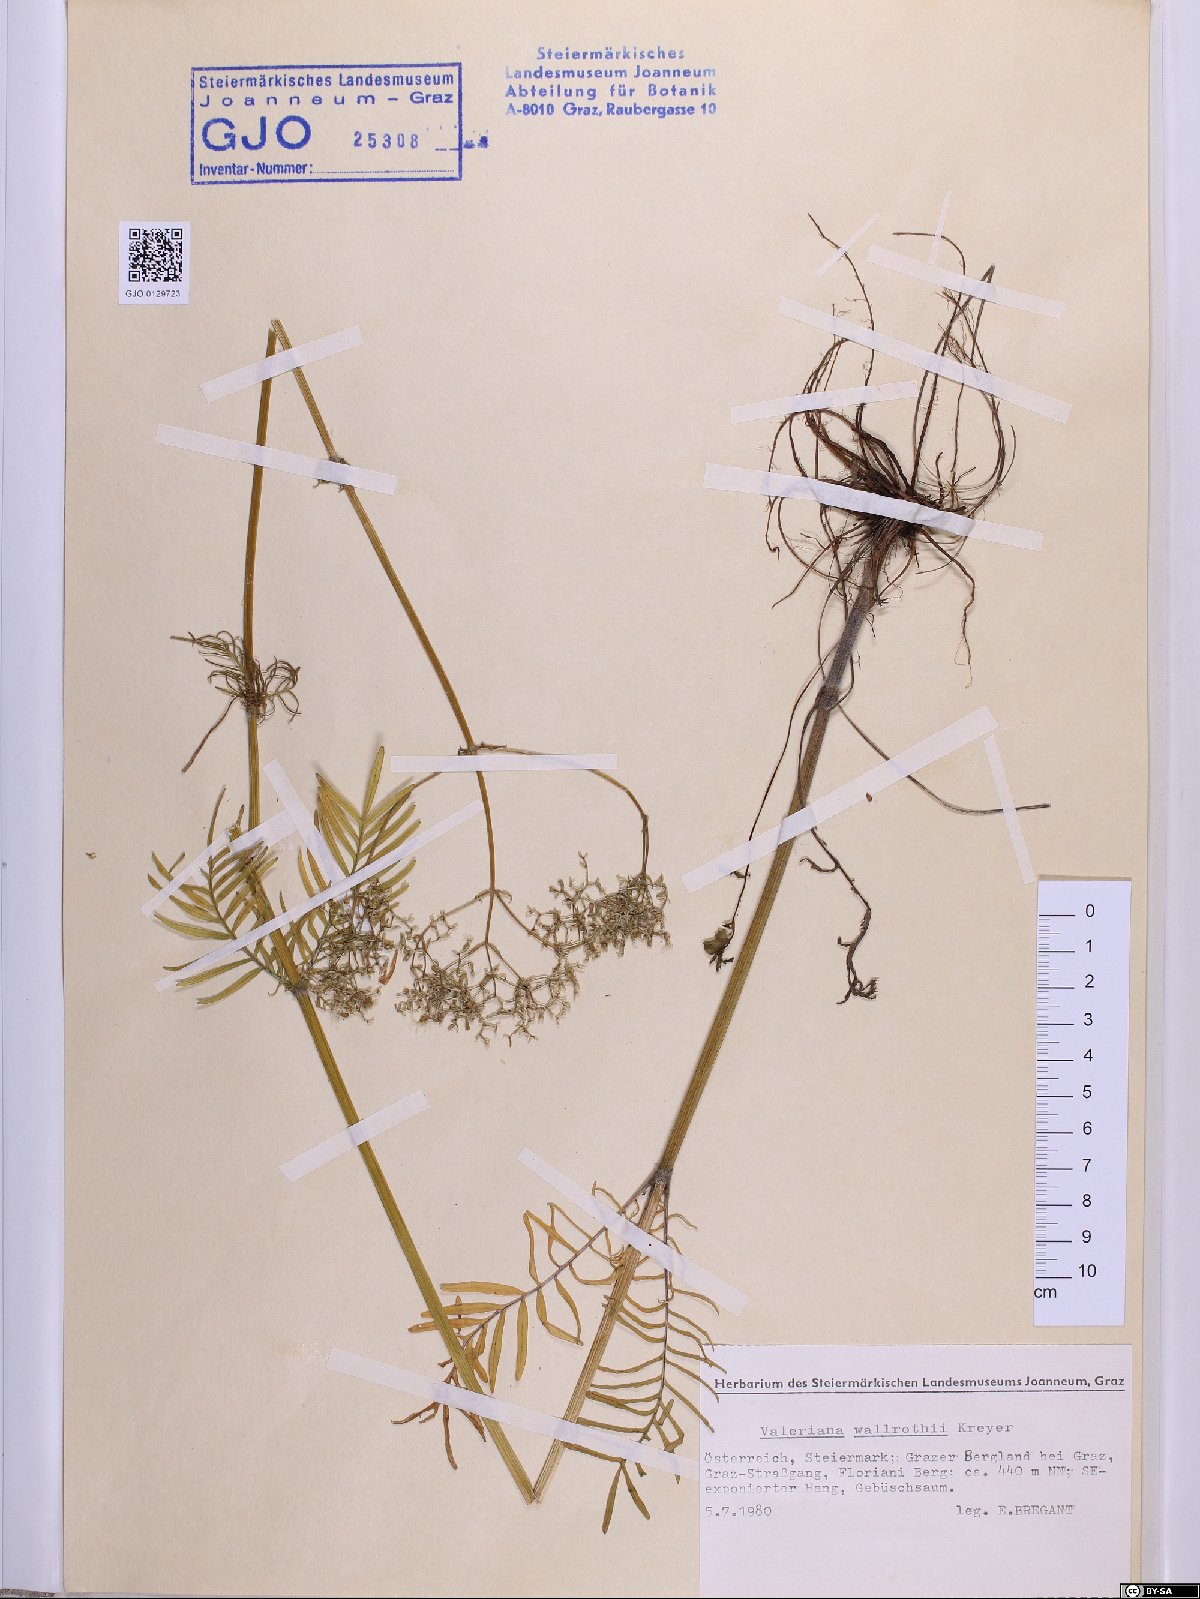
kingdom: Plantae
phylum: Tracheophyta
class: Magnoliopsida
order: Dipsacales
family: Caprifoliaceae
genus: Valeriana
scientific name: Valeriana pratensis
